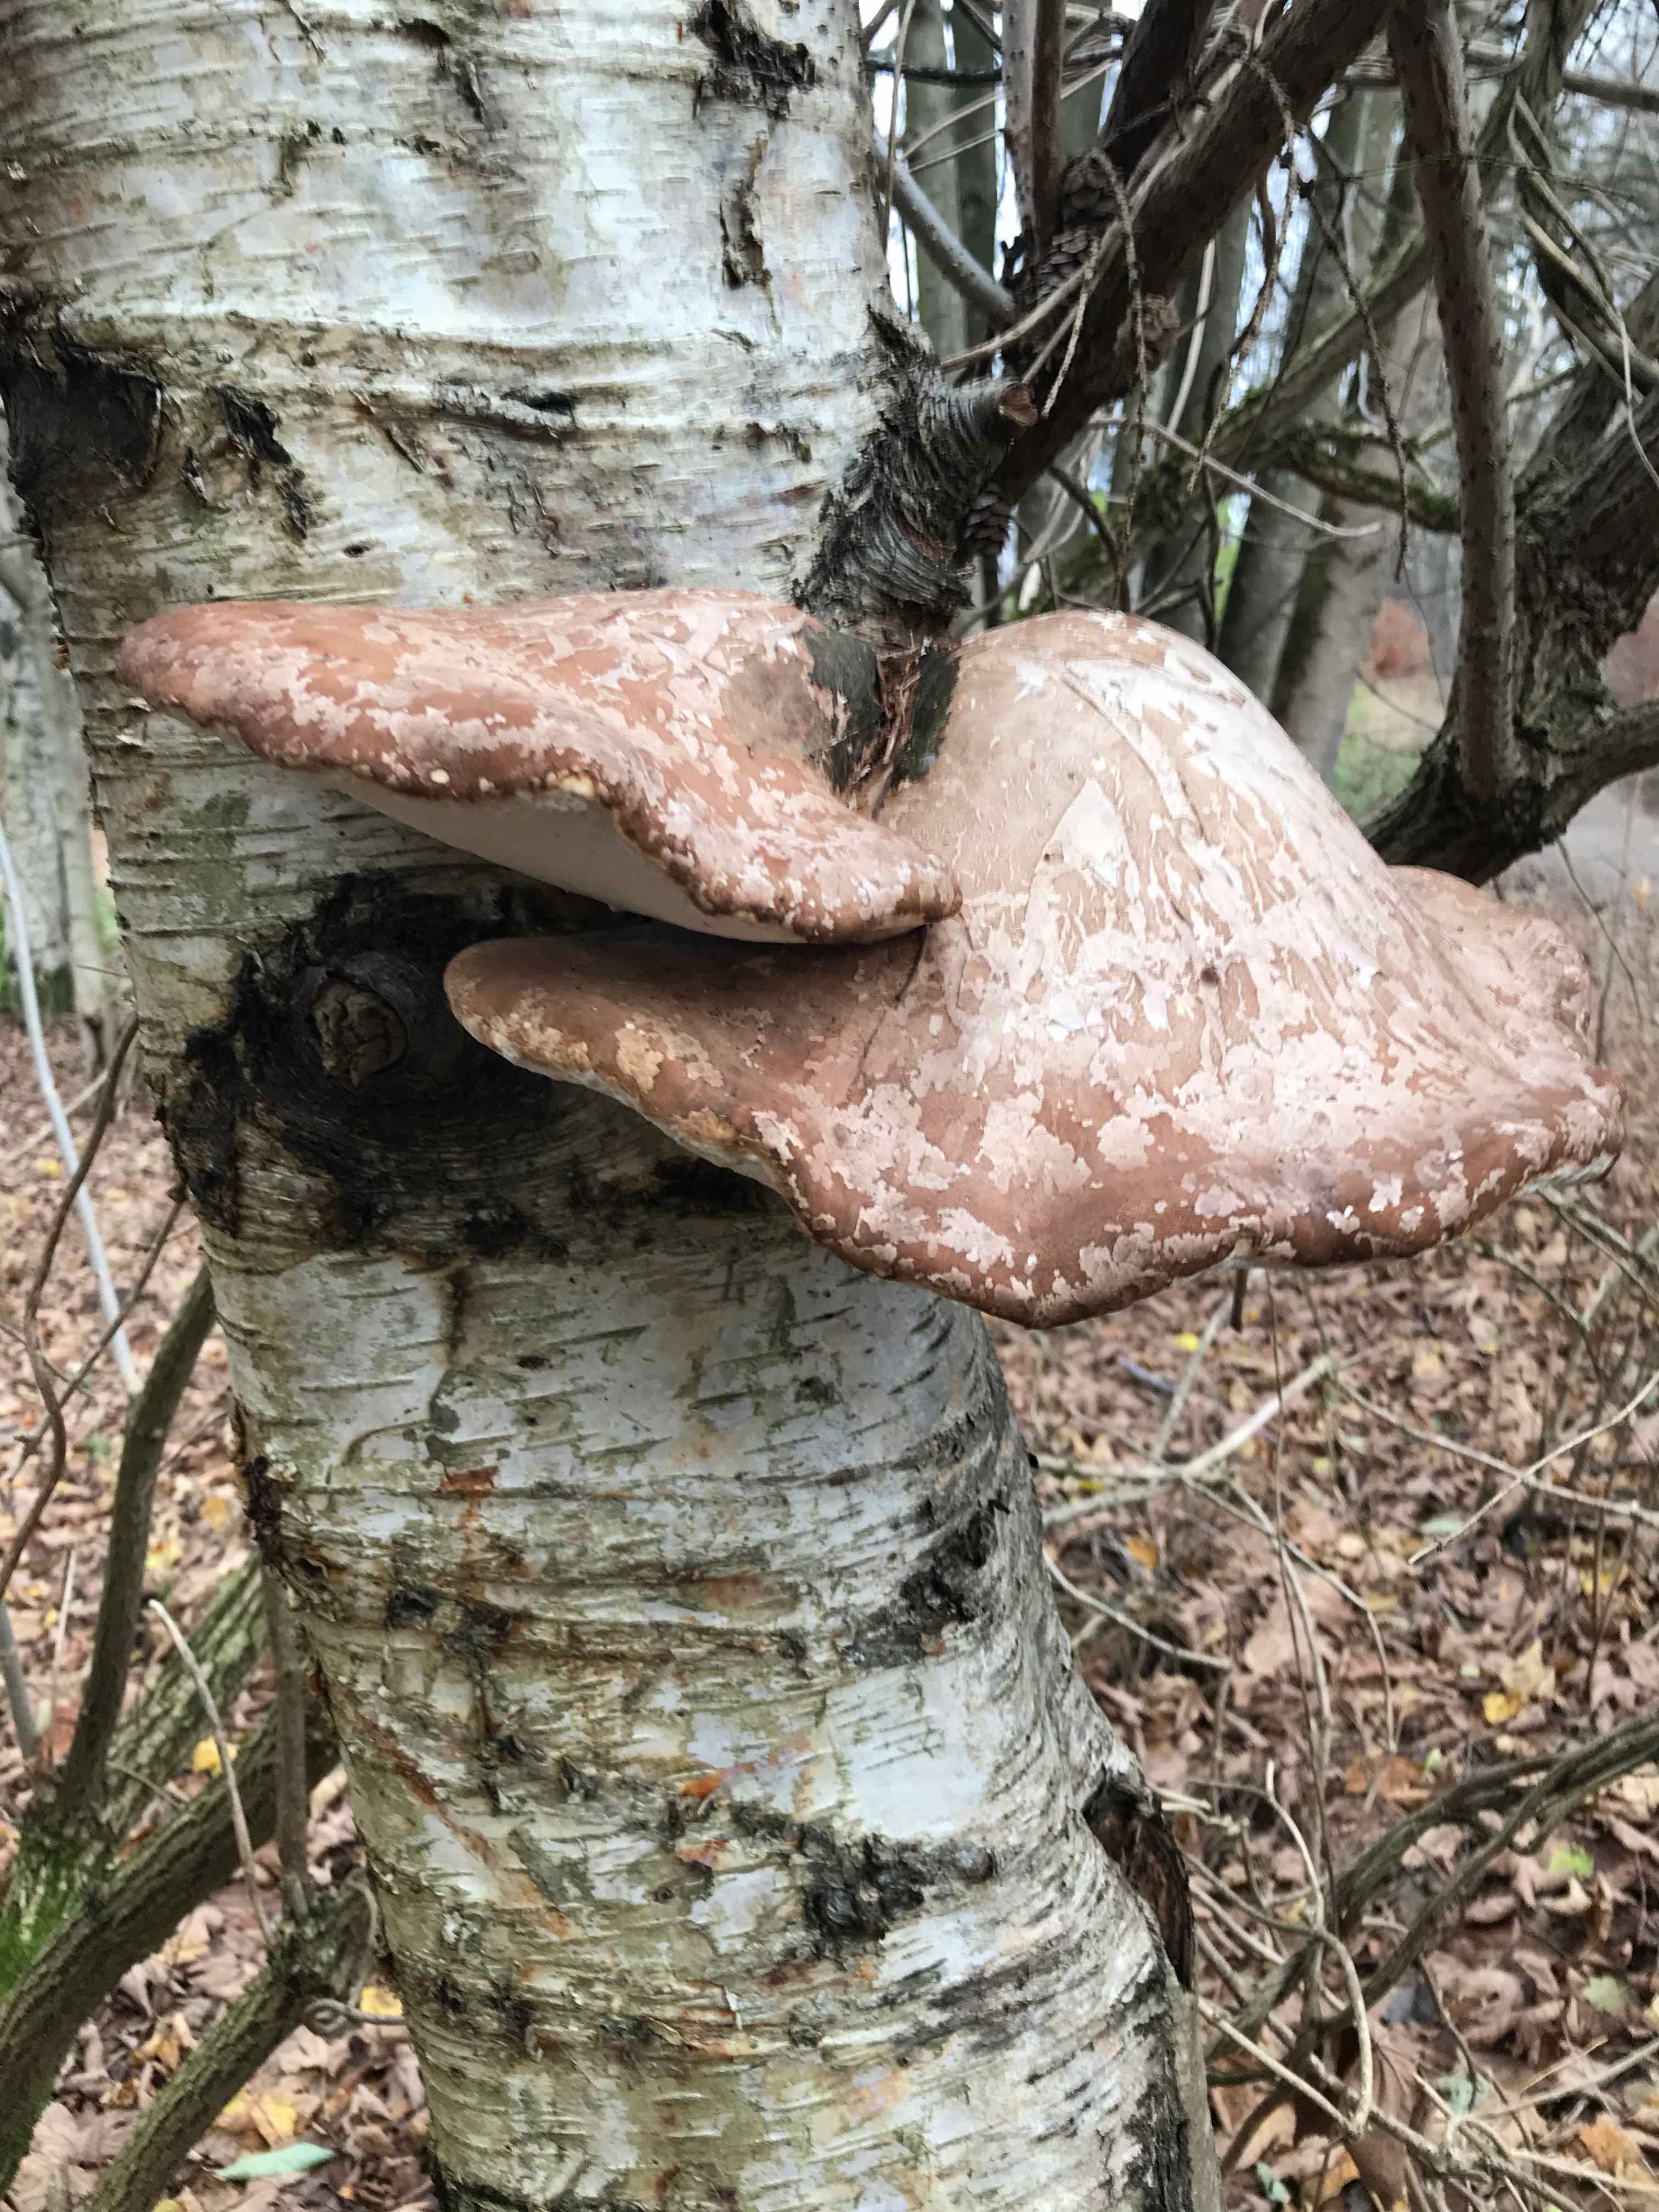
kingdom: Fungi
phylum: Basidiomycota
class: Agaricomycetes
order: Polyporales
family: Fomitopsidaceae
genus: Fomitopsis
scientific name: Fomitopsis betulina
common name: birkeporesvamp
